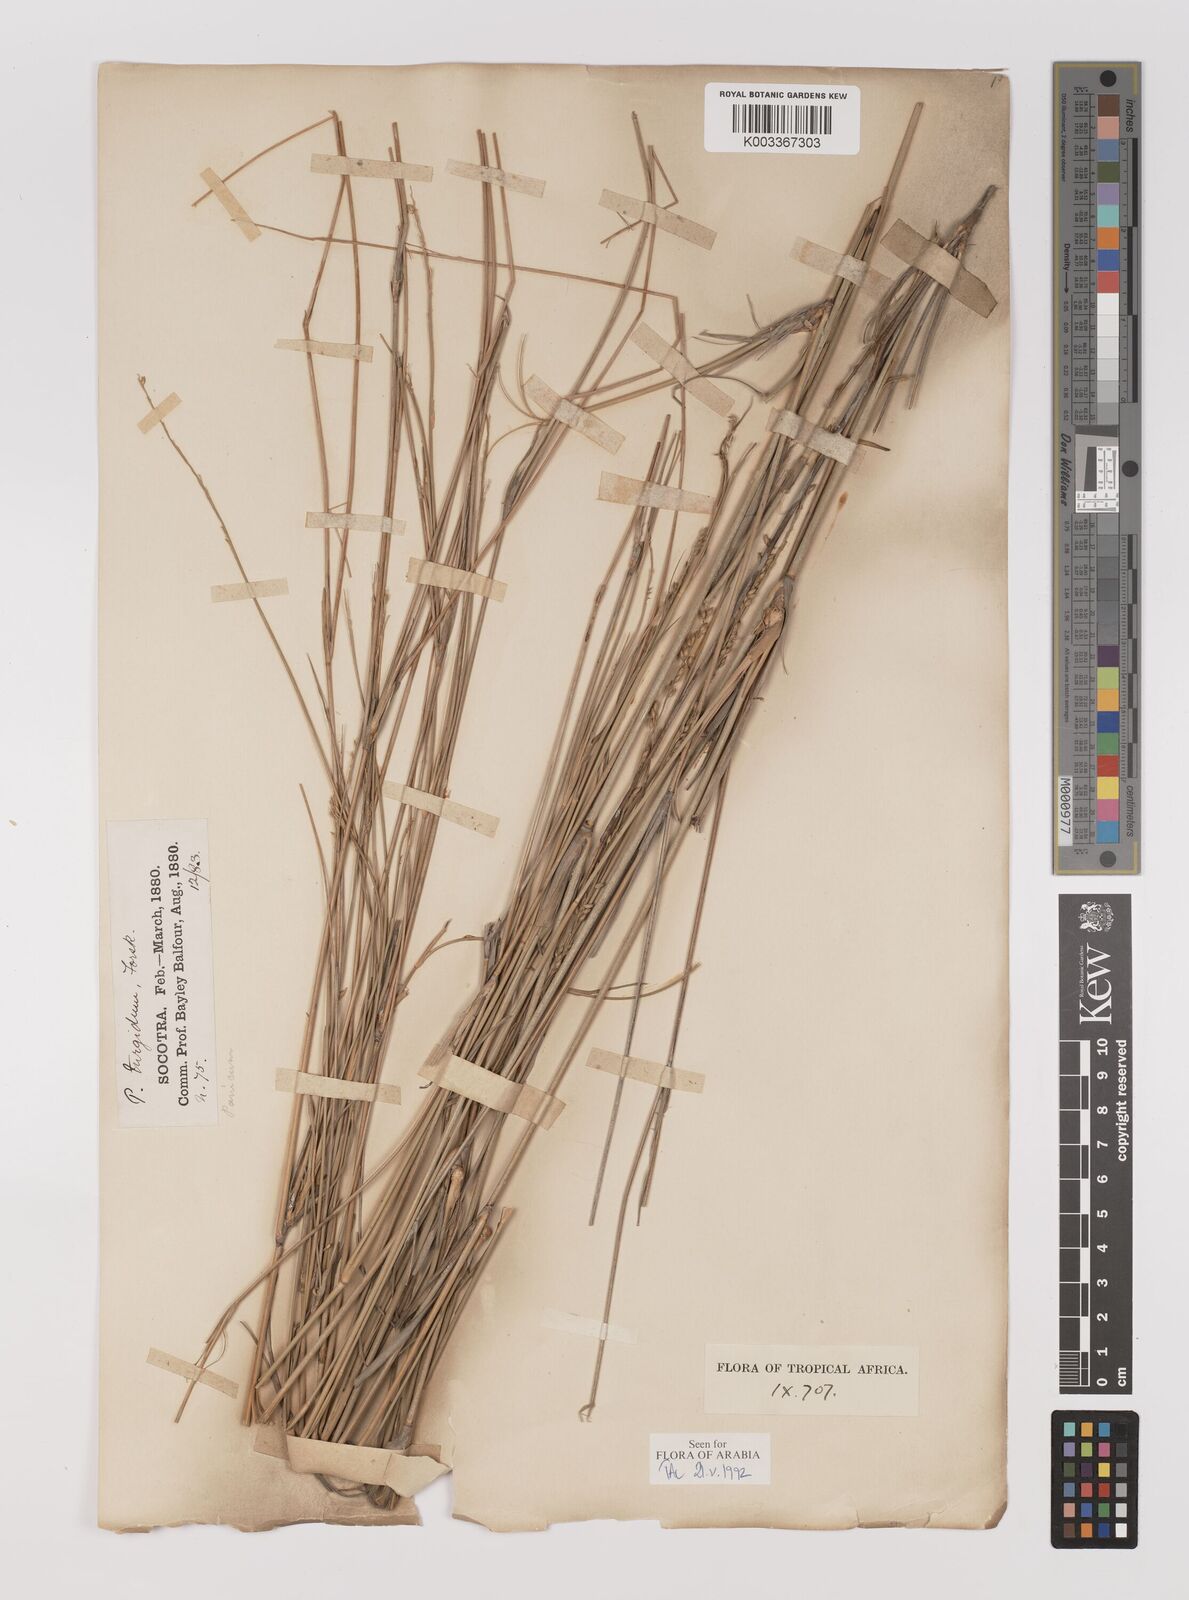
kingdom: Plantae
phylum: Tracheophyta
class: Liliopsida
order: Poales
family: Poaceae
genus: Panicum
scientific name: Panicum turgidum
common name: Desert grass
